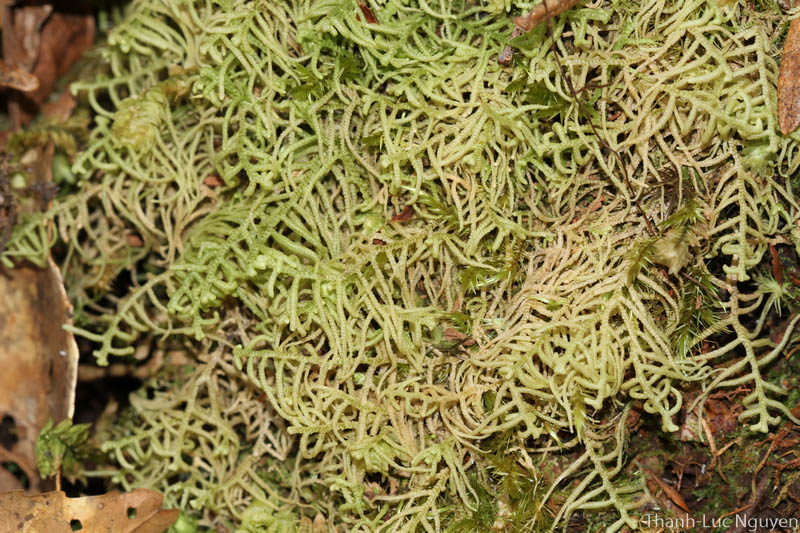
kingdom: Plantae
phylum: Marchantiophyta
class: Jungermanniopsida
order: Jungermanniales
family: Lepidoziaceae
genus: Lepidozia
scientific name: Lepidozia
